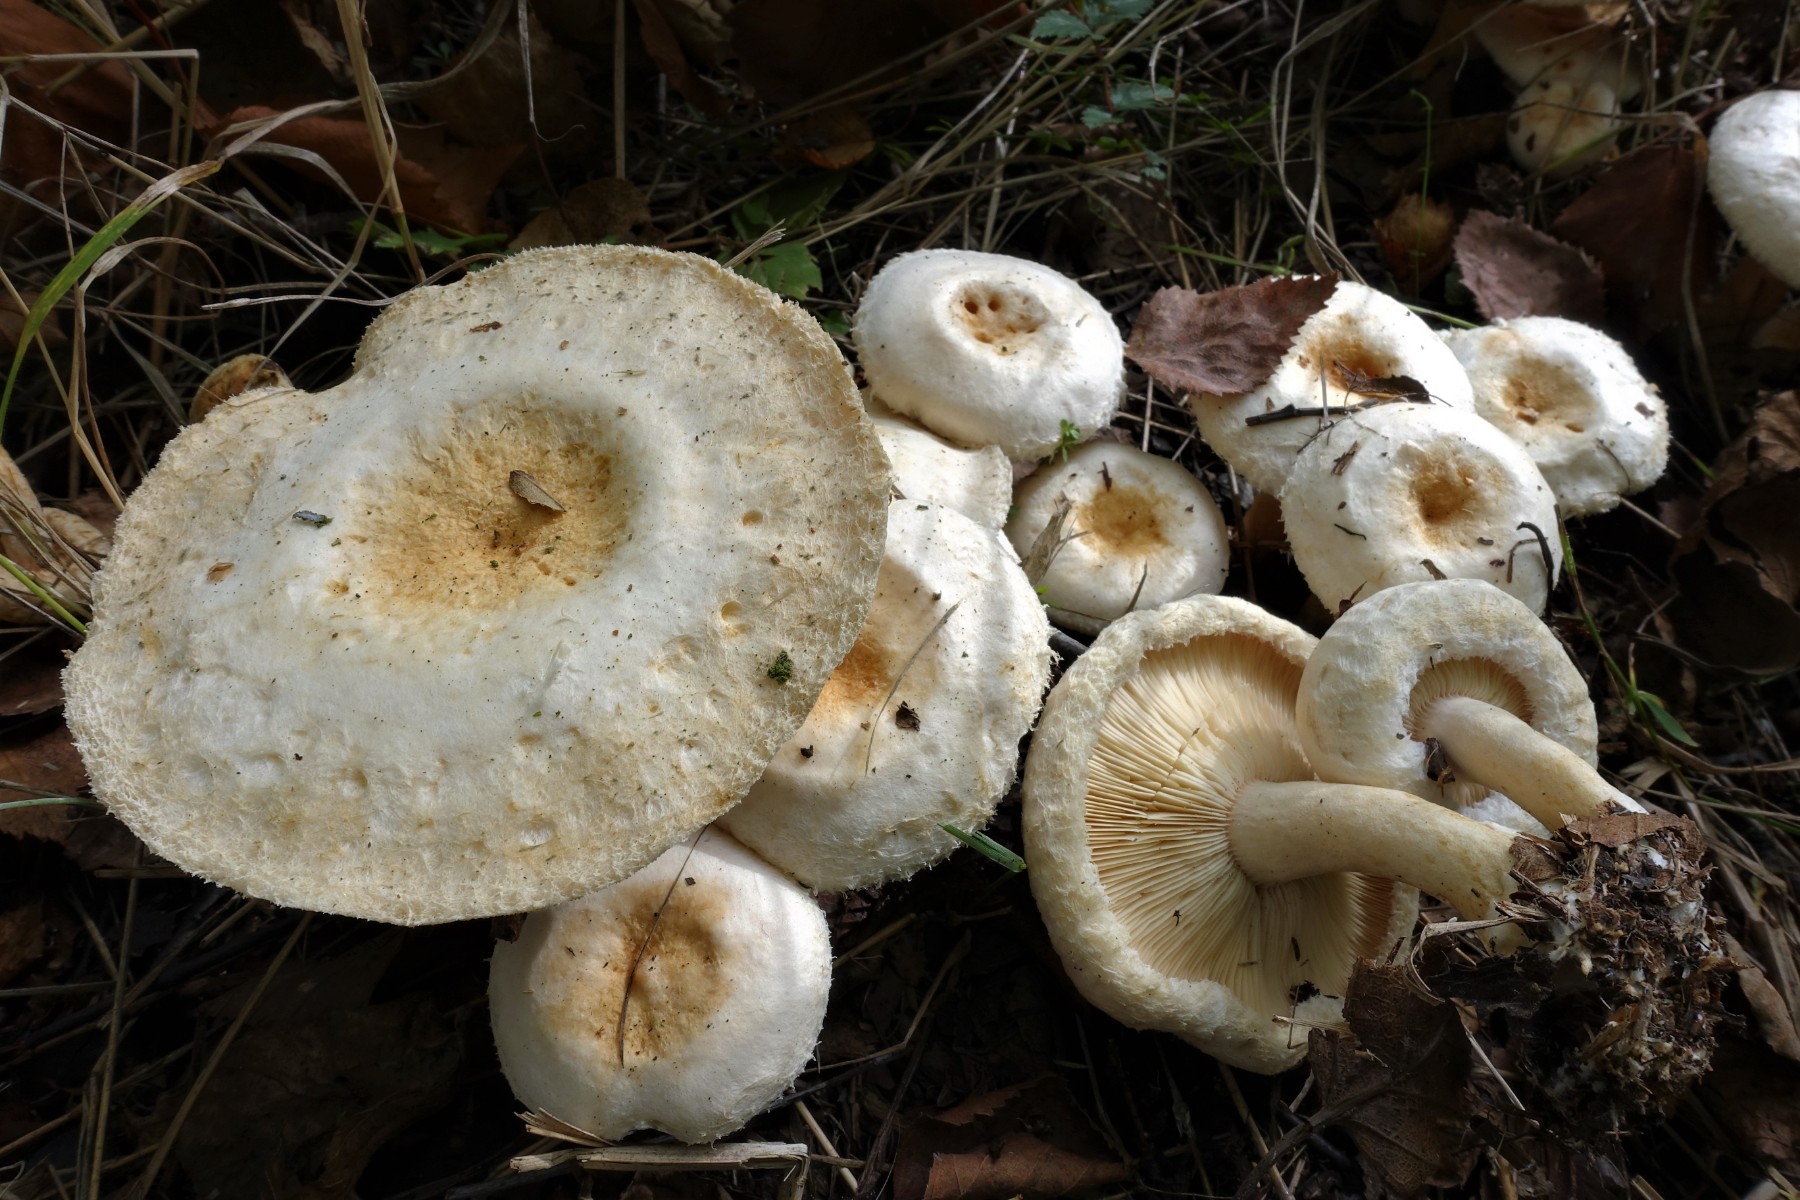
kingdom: Fungi
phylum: Basidiomycota
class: Agaricomycetes
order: Russulales
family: Russulaceae
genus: Lactarius
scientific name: Lactarius scoticus
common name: tørve-mælkehat
